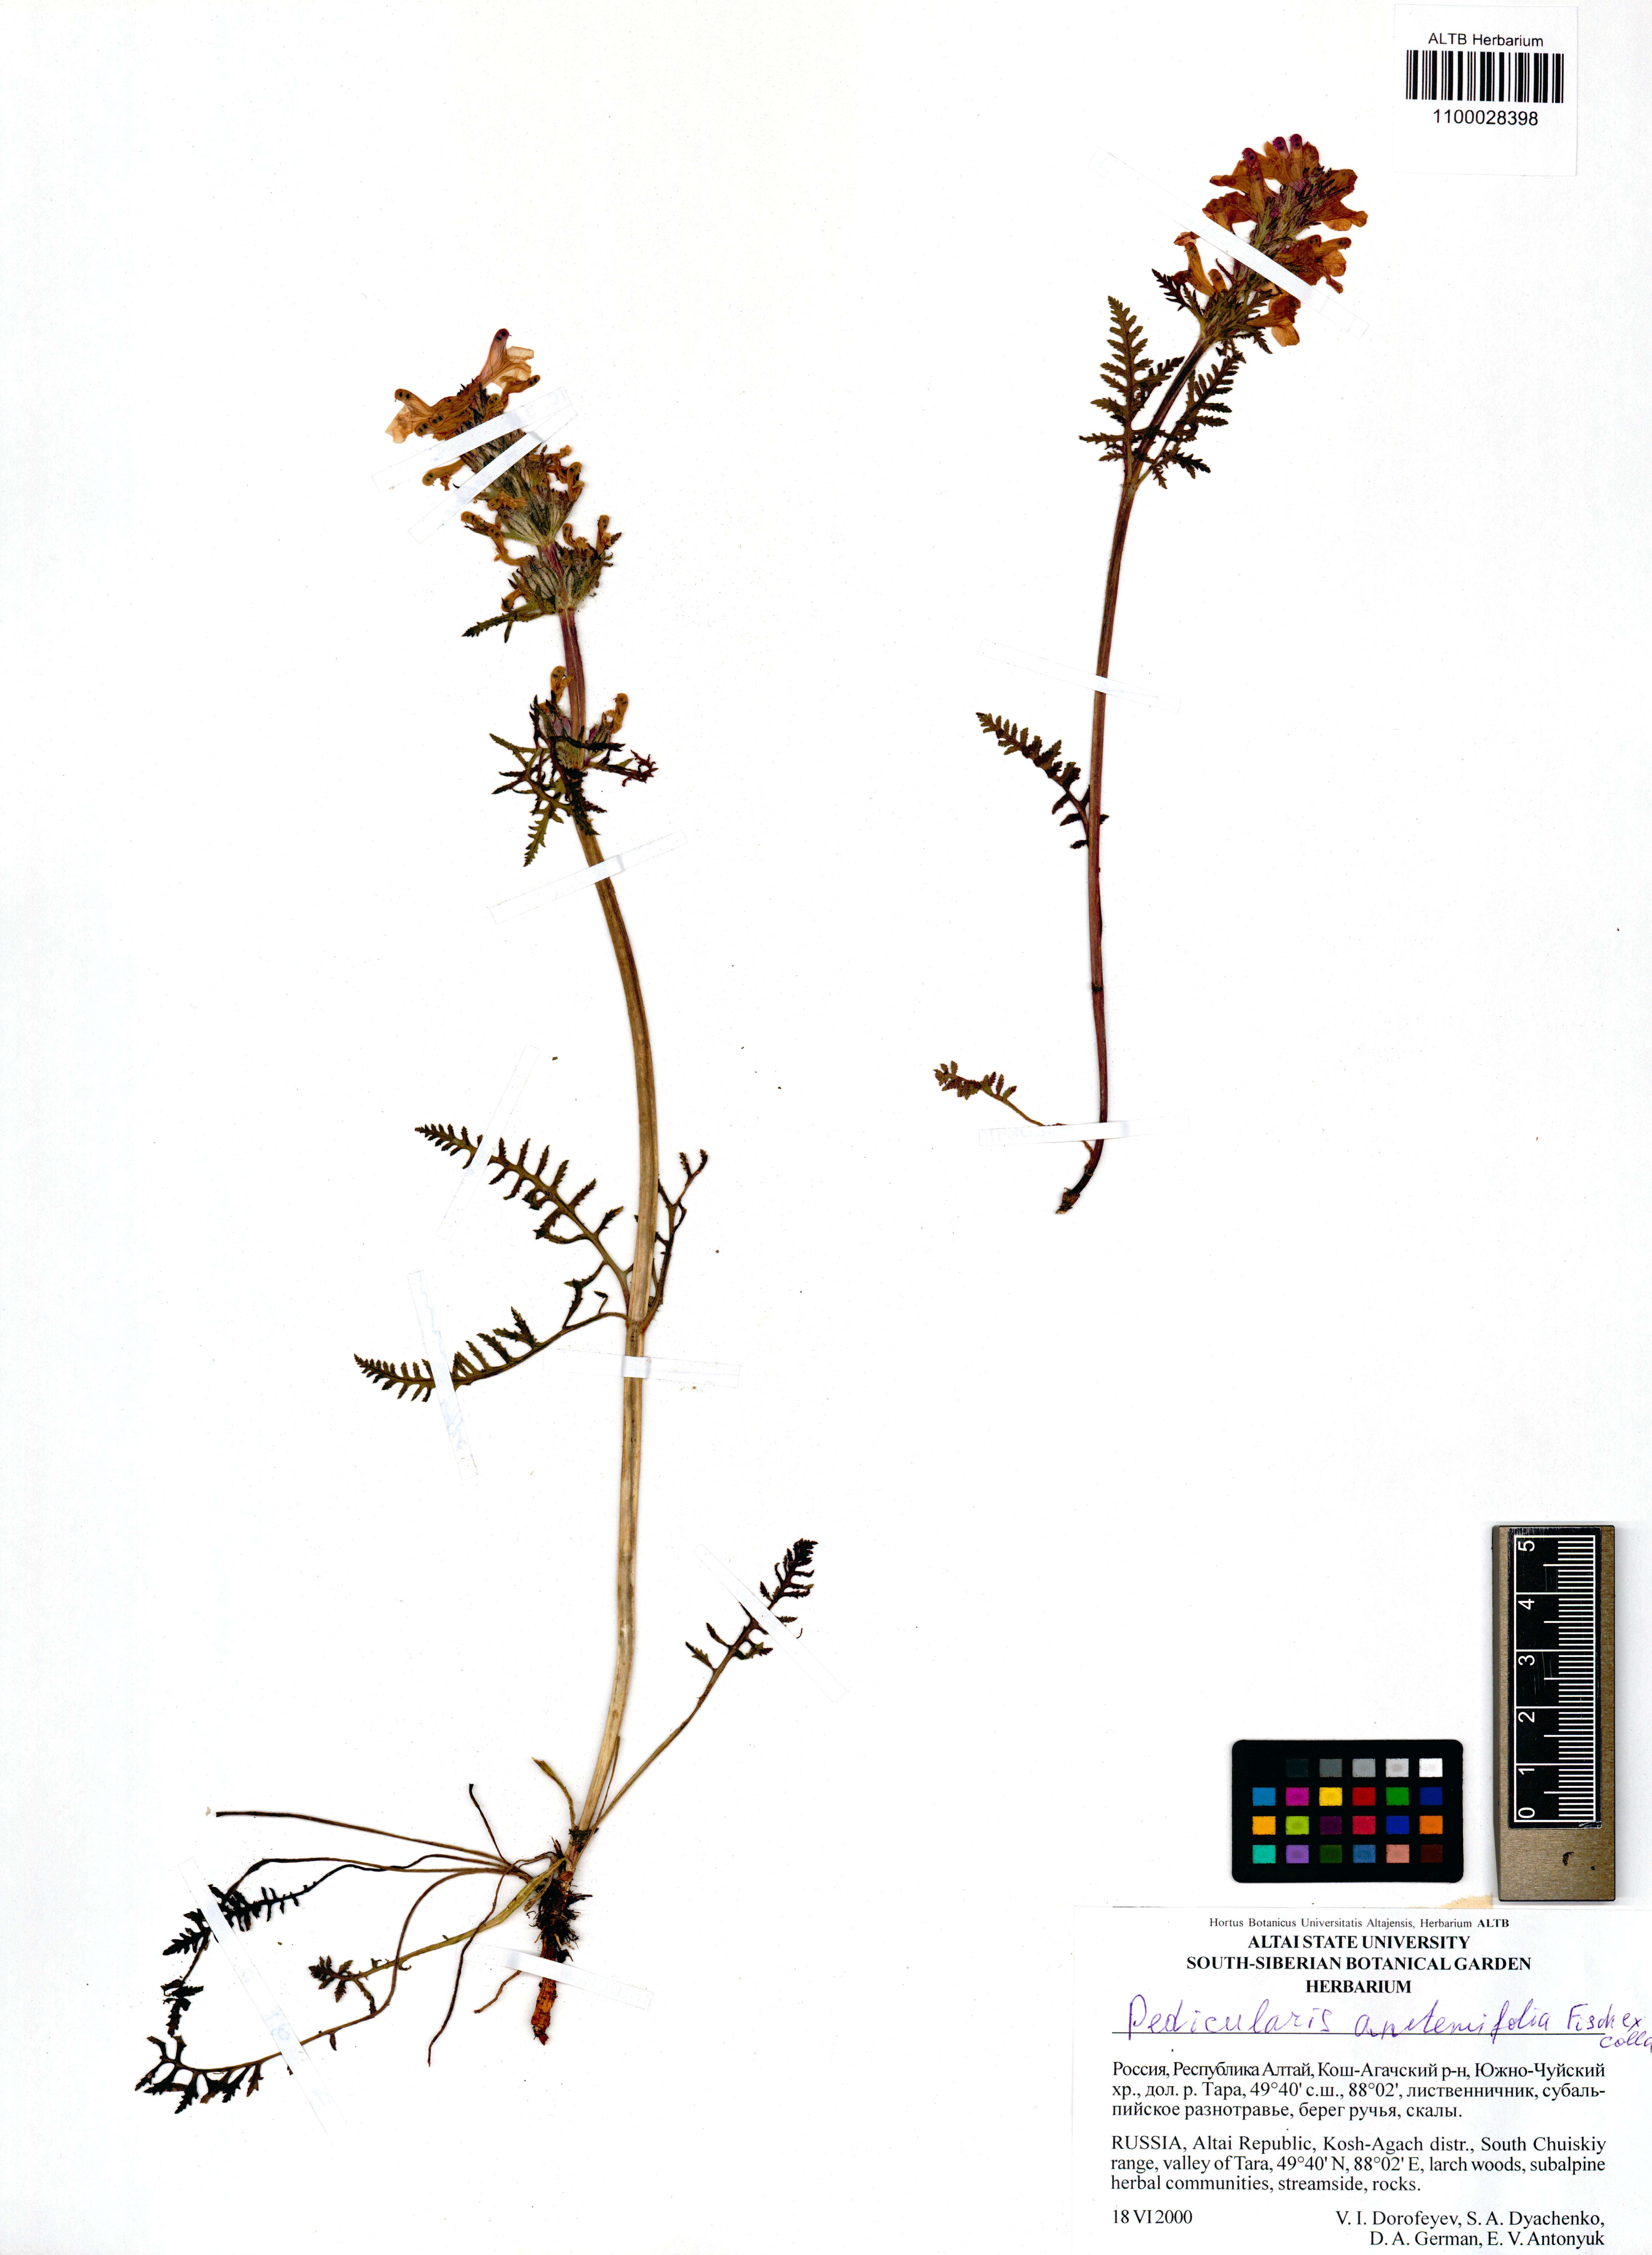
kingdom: Plantae
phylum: Tracheophyta
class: Magnoliopsida
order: Lamiales
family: Orobanchaceae
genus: Pedicularis
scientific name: Pedicularis anthemifolia
